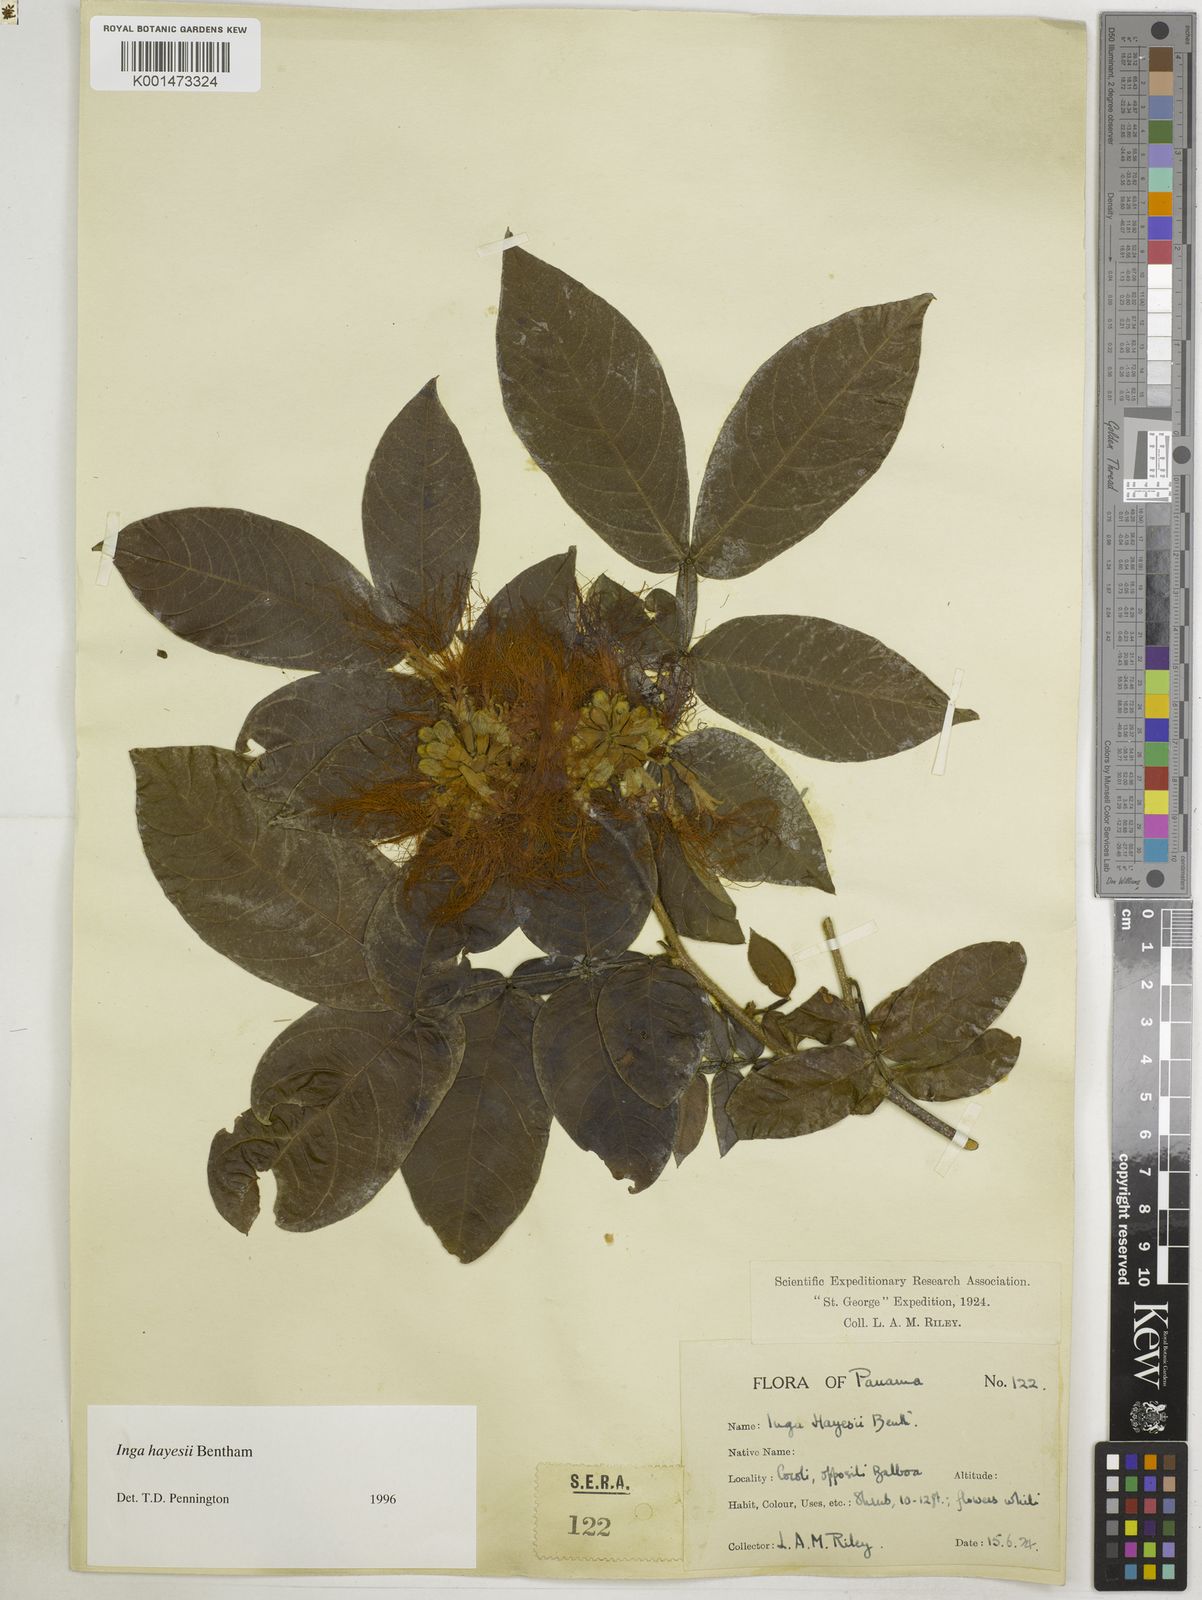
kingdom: Plantae
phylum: Tracheophyta
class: Magnoliopsida
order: Fabales
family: Fabaceae
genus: Inga
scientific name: Inga hayesii
